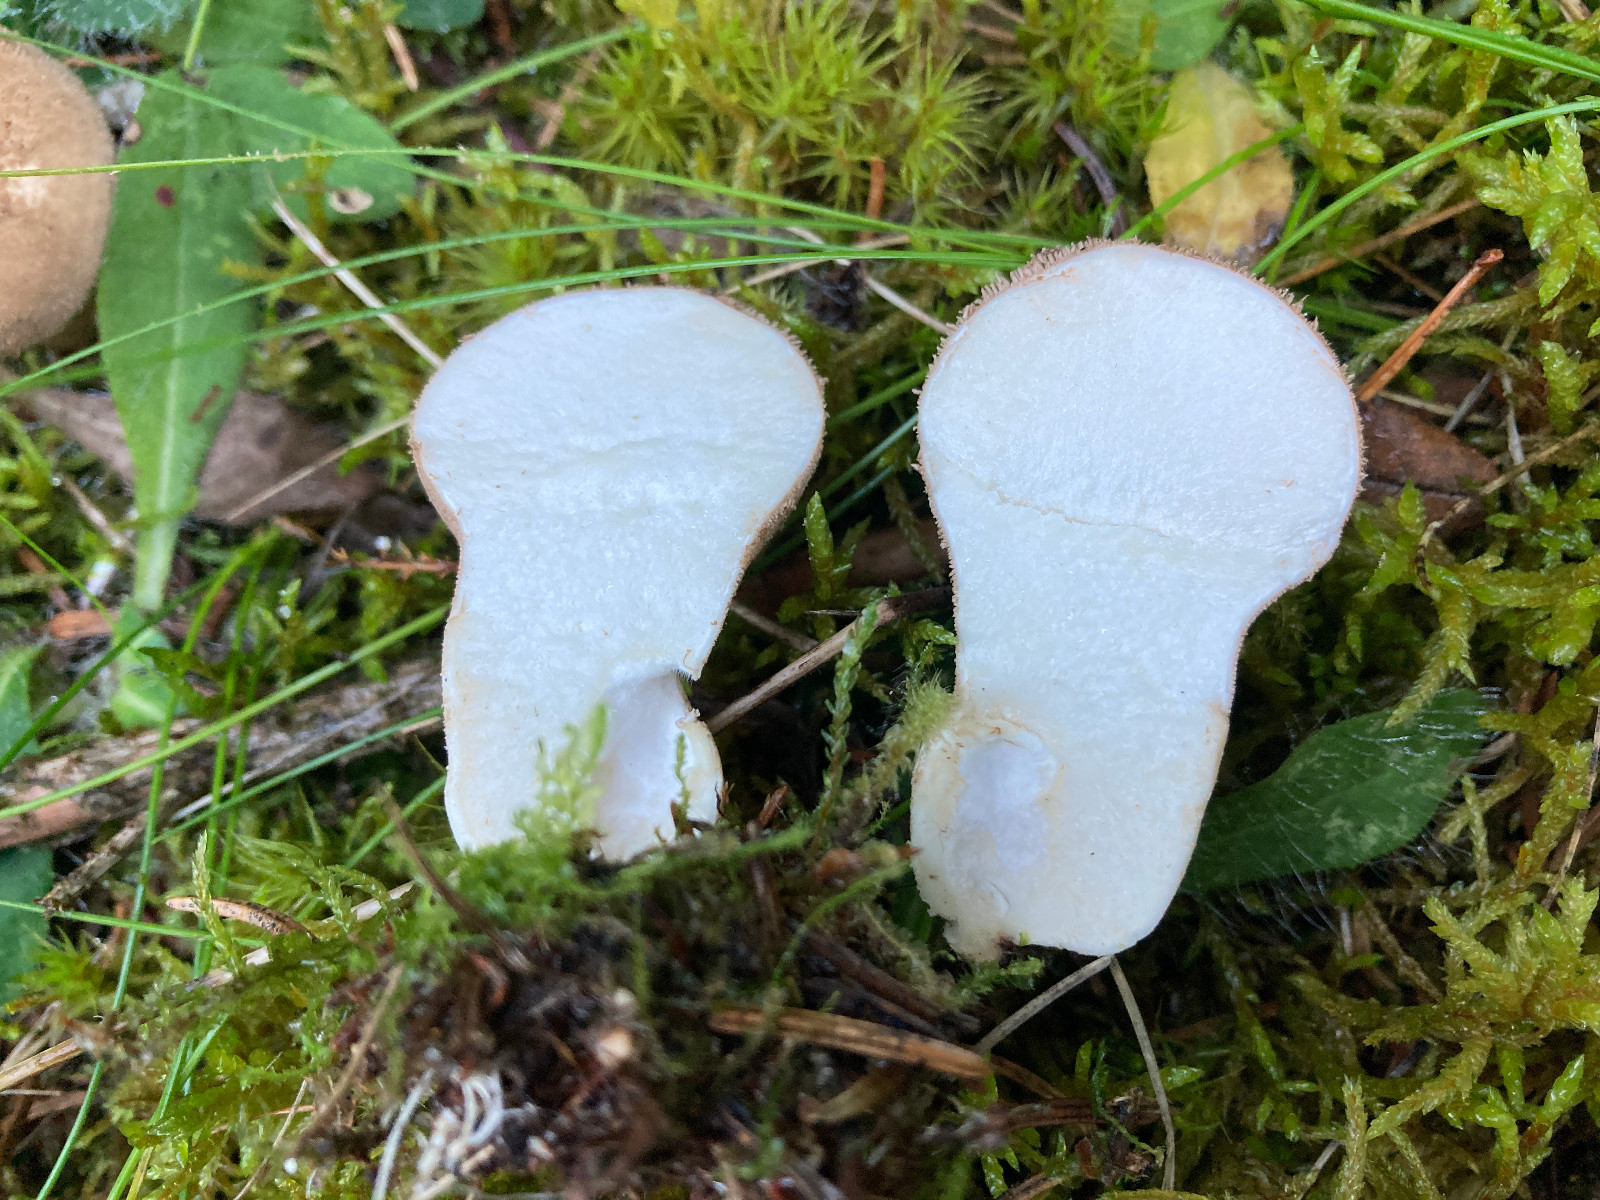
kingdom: Fungi
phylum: Basidiomycota
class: Agaricomycetes
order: Agaricales
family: Agaricaceae
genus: Lycoperdon
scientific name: Lycoperdon
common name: støvbold
